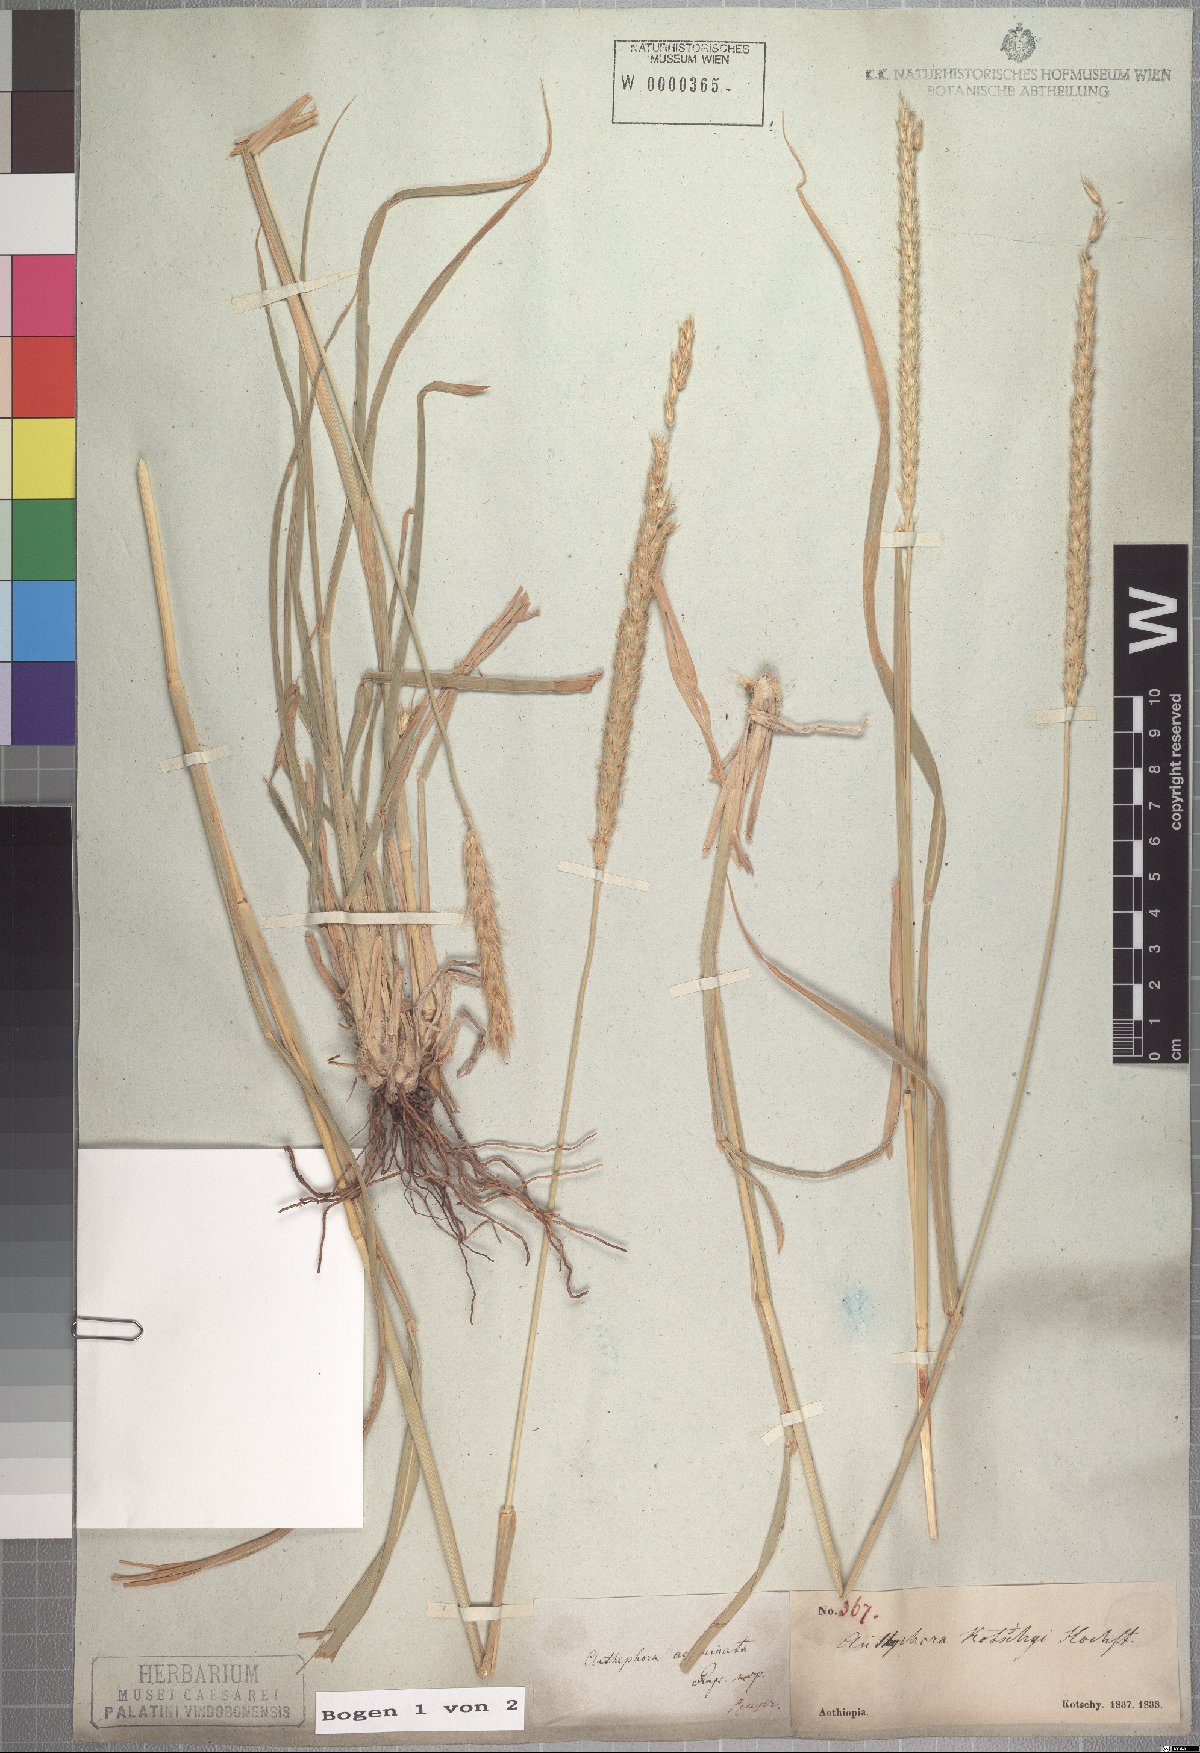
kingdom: Plantae
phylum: Tracheophyta
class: Liliopsida
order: Poales
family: Poaceae
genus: Anthephora
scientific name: Anthephora pubescens
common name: Wool grass
